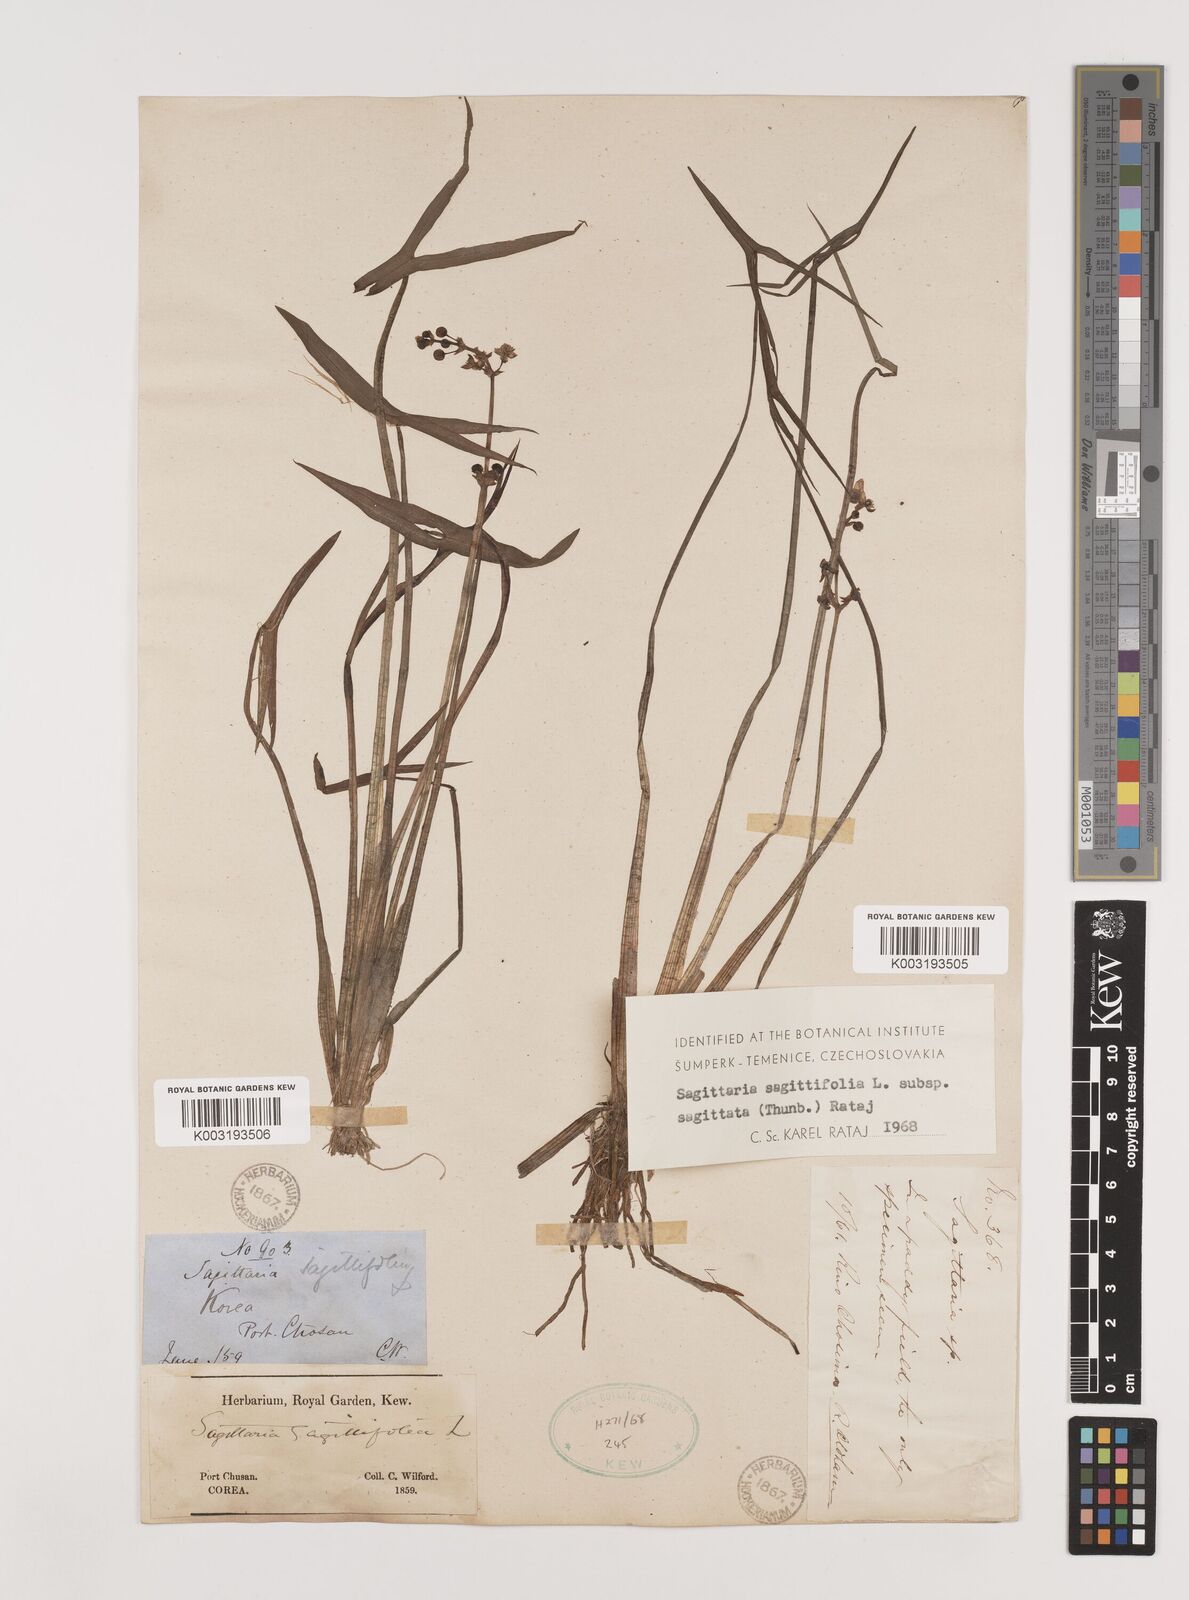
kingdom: Plantae
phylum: Tracheophyta
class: Liliopsida
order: Alismatales
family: Alismataceae
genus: Sagittaria
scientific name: Sagittaria sagittifolia
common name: Arrowhead
